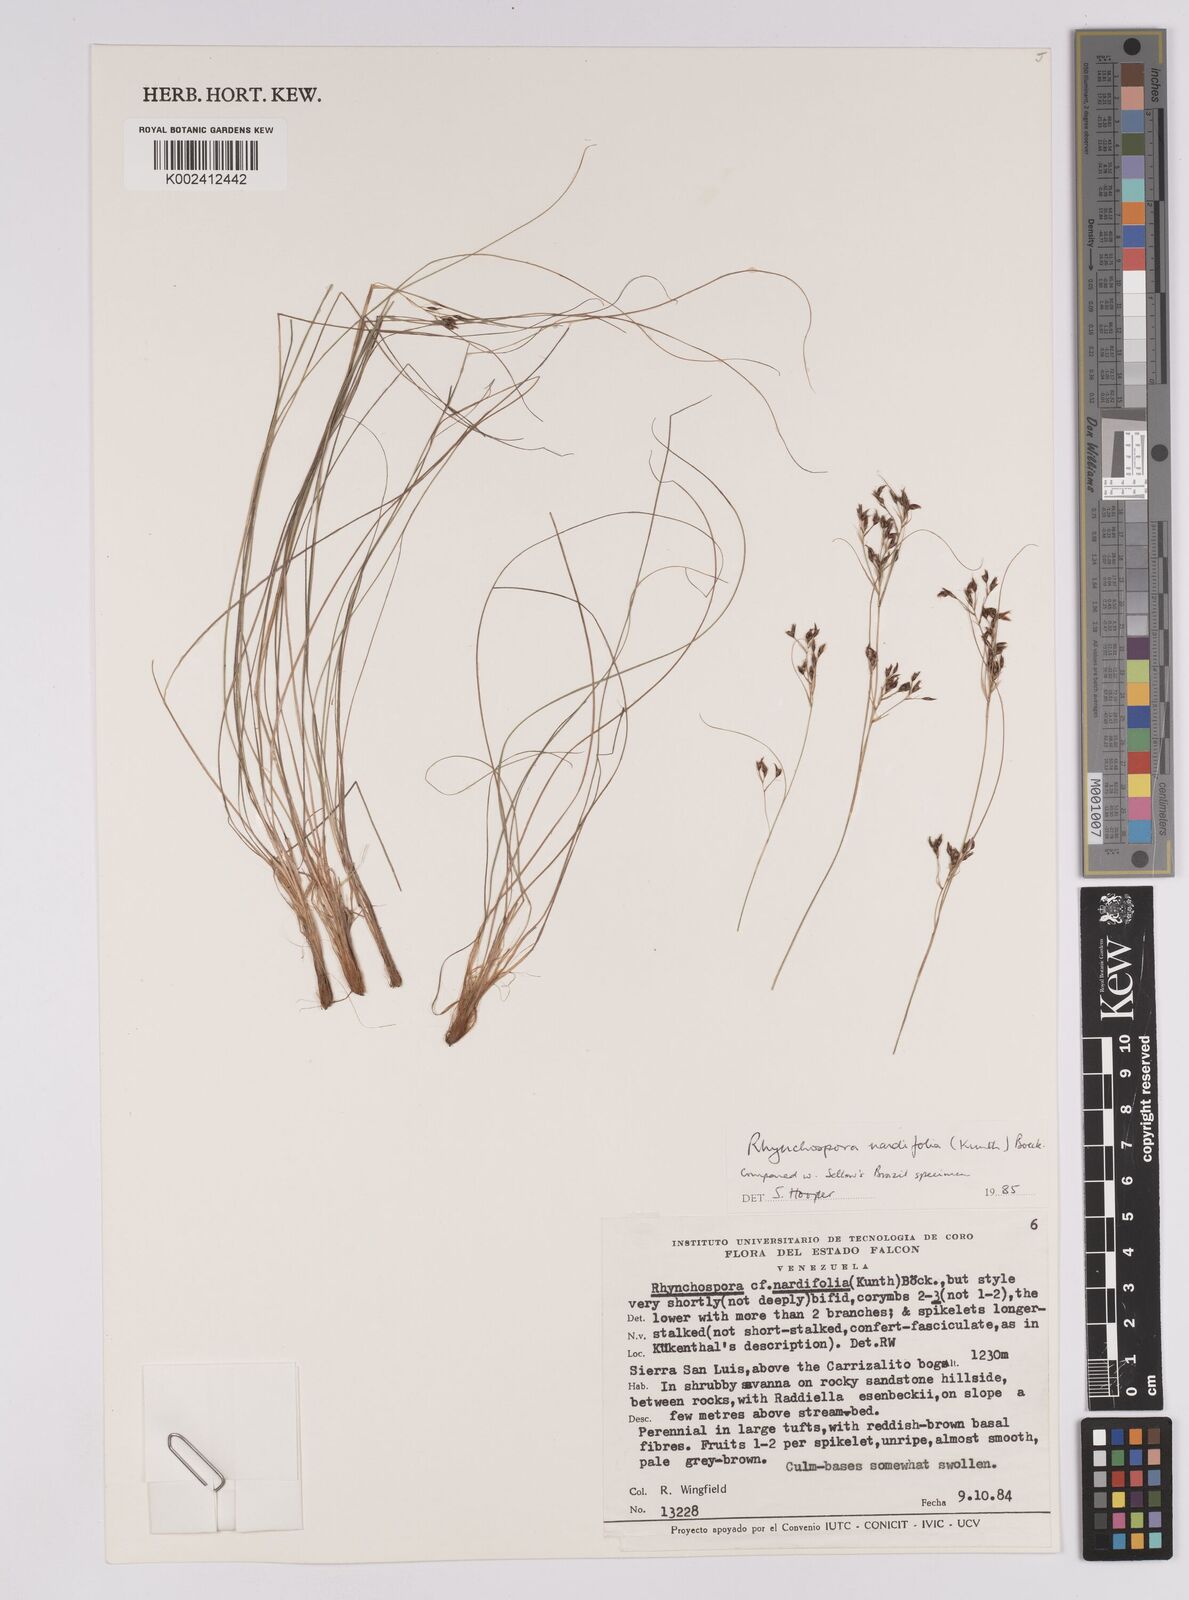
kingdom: Plantae
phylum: Tracheophyta
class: Liliopsida
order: Poales
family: Cyperaceae
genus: Rhynchospora
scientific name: Rhynchospora nardifolia
